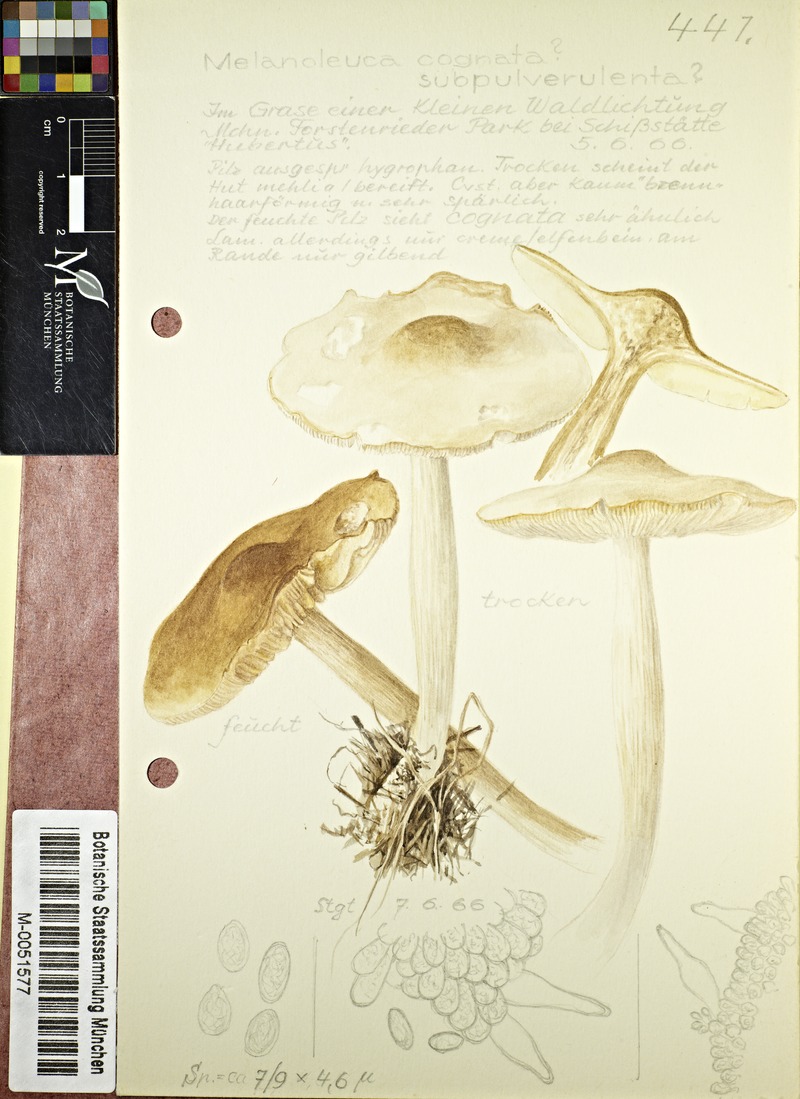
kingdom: Fungi
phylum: Basidiomycota
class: Agaricomycetes
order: Agaricales
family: Tricholomataceae
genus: Melanoleuca
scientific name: Melanoleuca cognata
